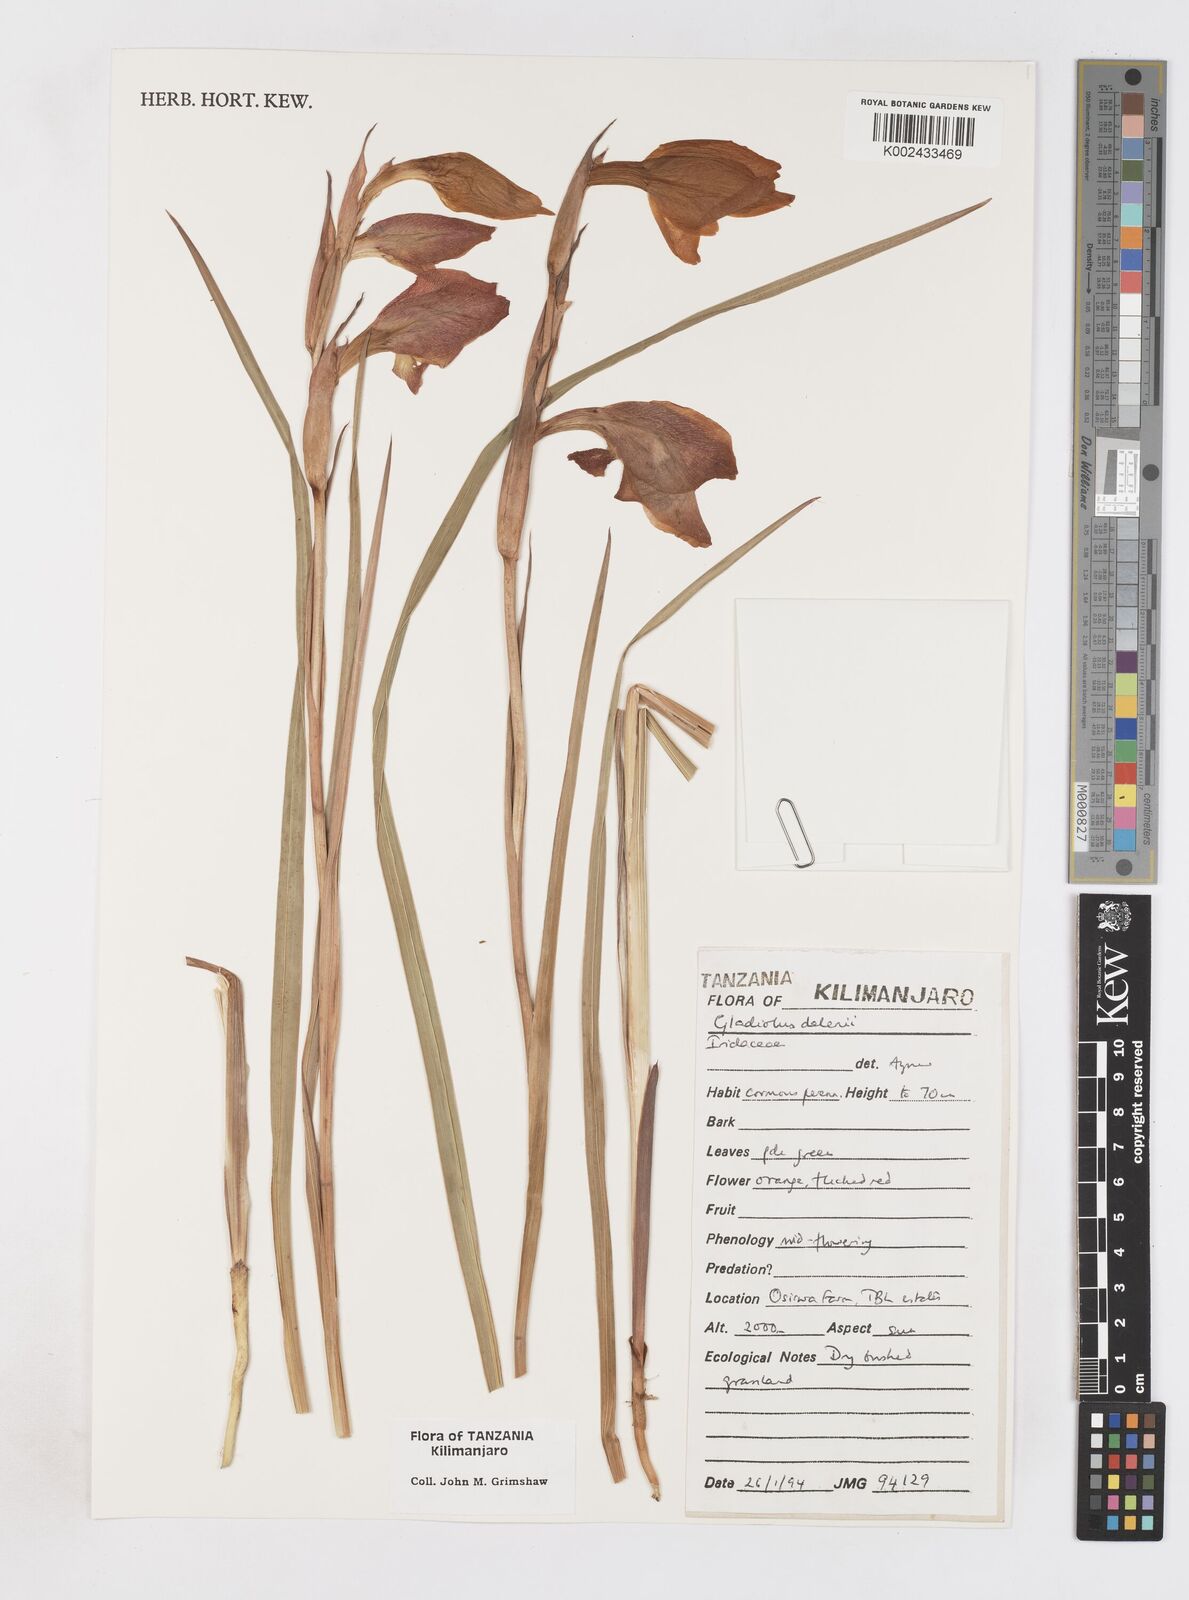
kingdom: Plantae
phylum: Tracheophyta
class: Liliopsida
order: Asparagales
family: Iridaceae
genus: Gladiolus
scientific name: Gladiolus dalenii
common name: Cornflag
